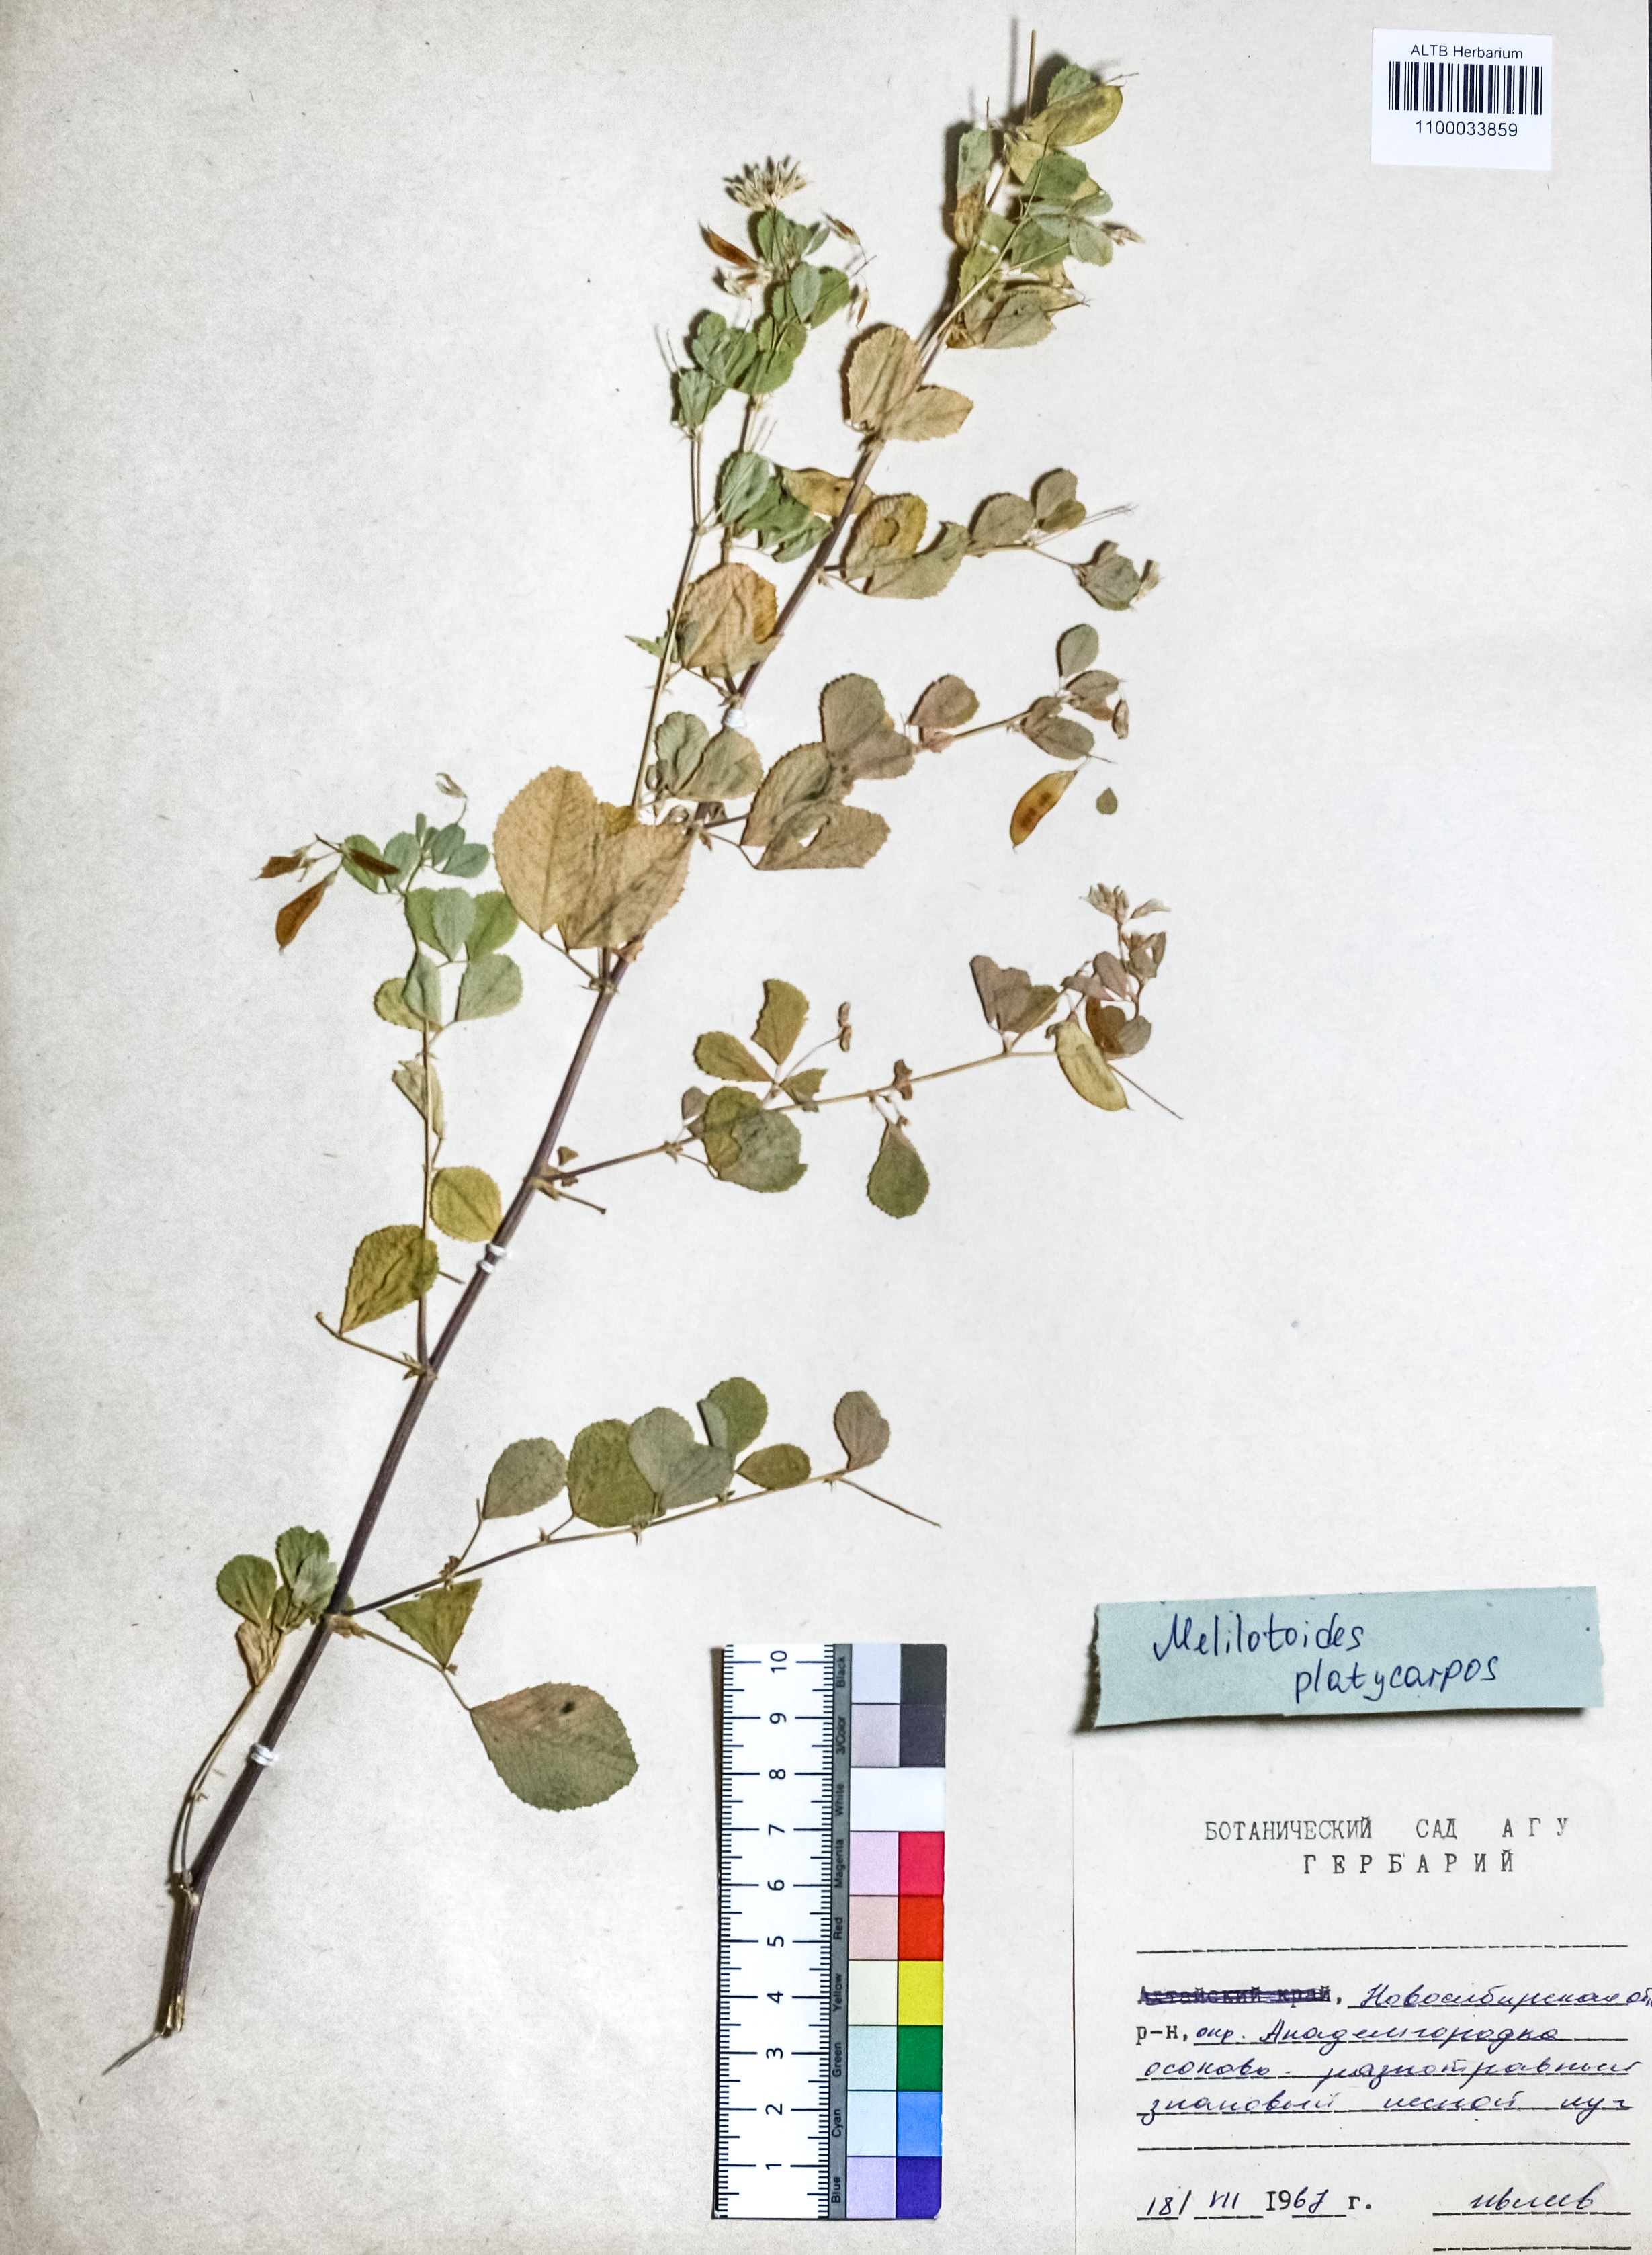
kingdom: Plantae
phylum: Tracheophyta
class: Magnoliopsida
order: Fabales
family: Fabaceae
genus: Medicago
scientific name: Medicago platycarpos
